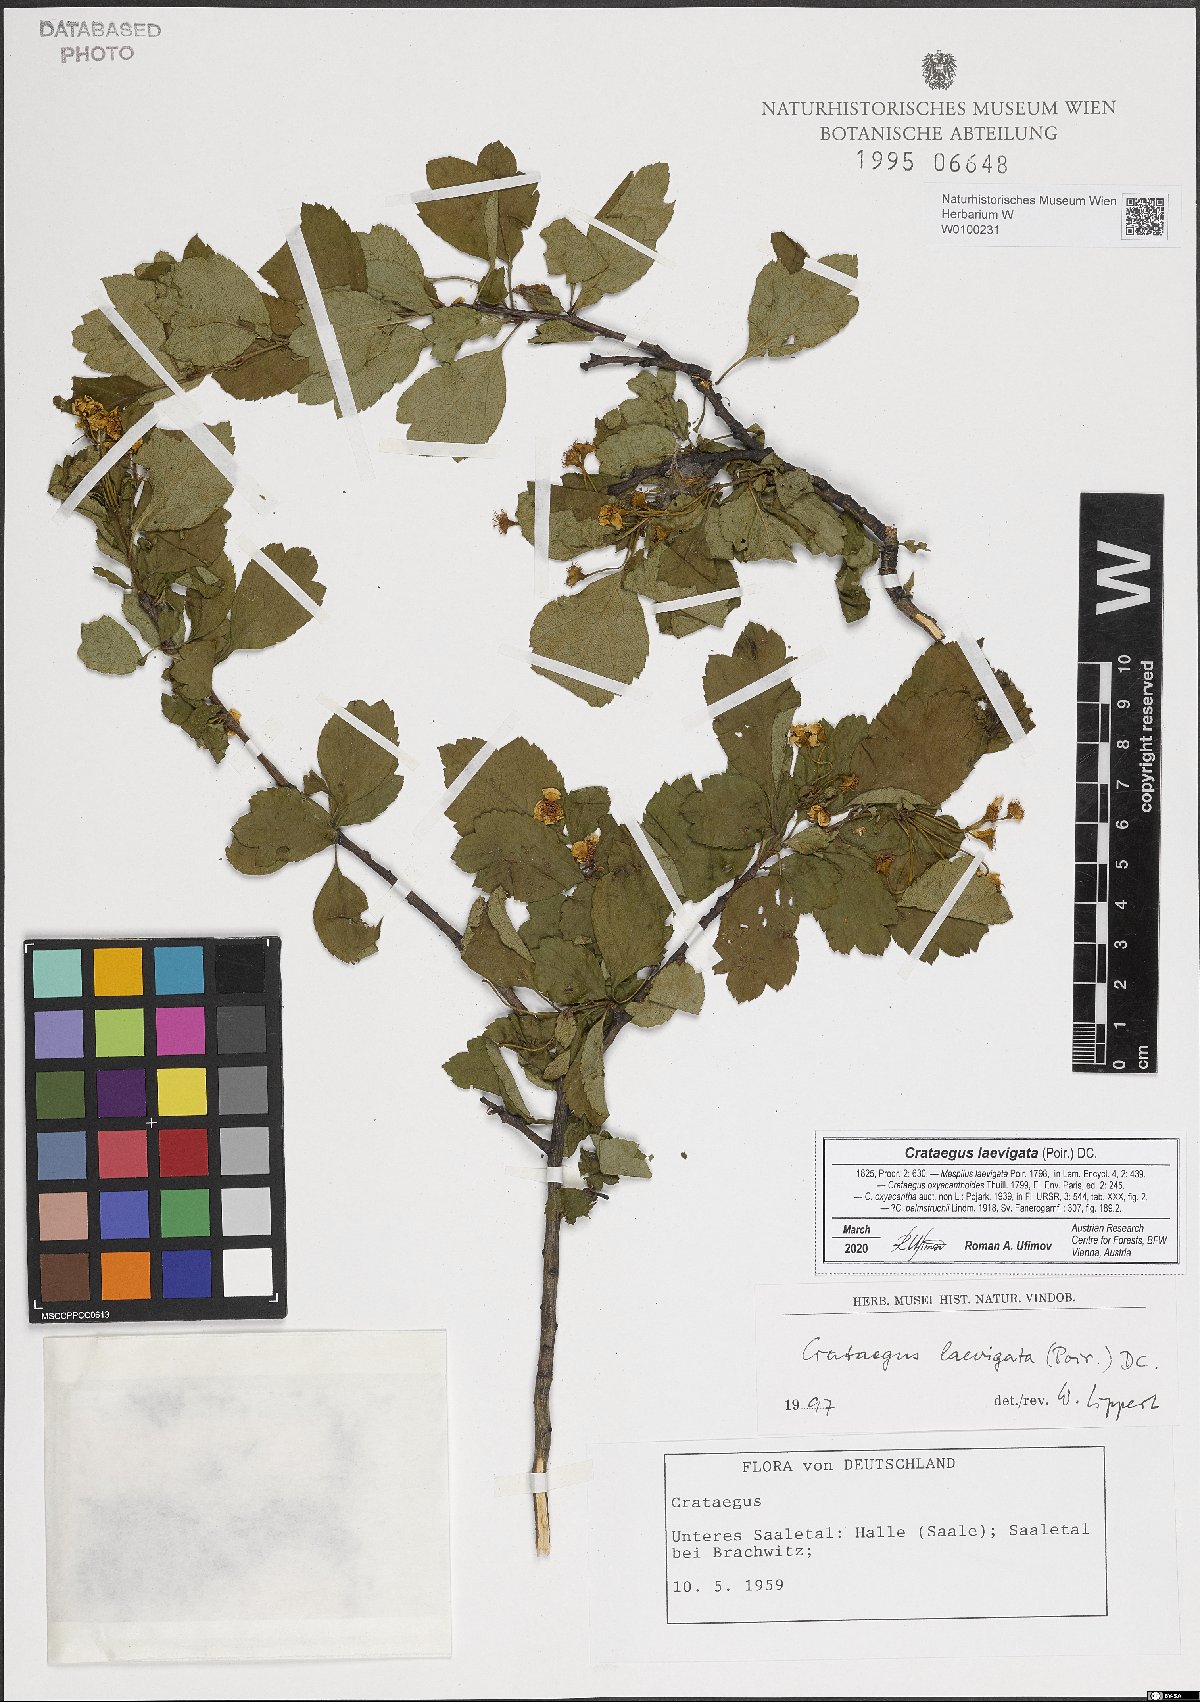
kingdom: Plantae
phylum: Tracheophyta
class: Magnoliopsida
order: Rosales
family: Rosaceae
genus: Crataegus
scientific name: Crataegus laevigata
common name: Midland hawthorn
